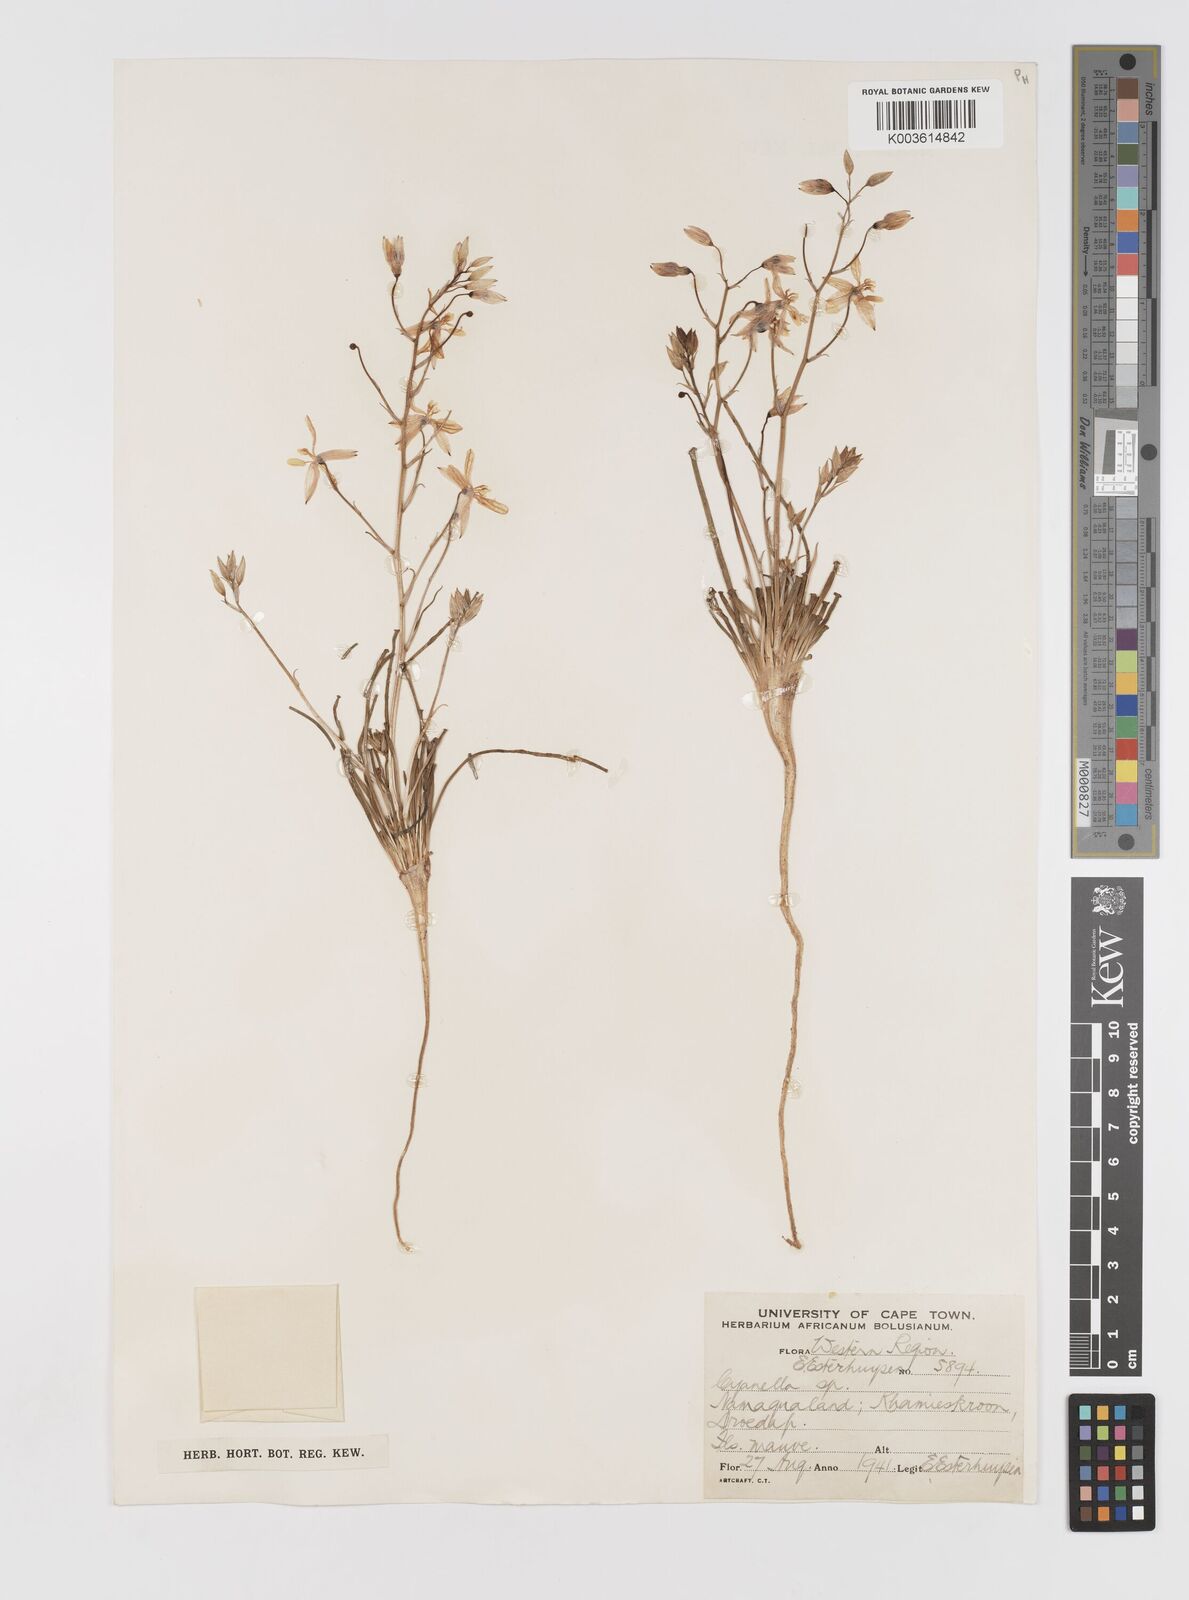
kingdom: Plantae
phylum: Tracheophyta
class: Liliopsida
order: Asparagales
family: Tecophilaeaceae
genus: Cyanella
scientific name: Cyanella
